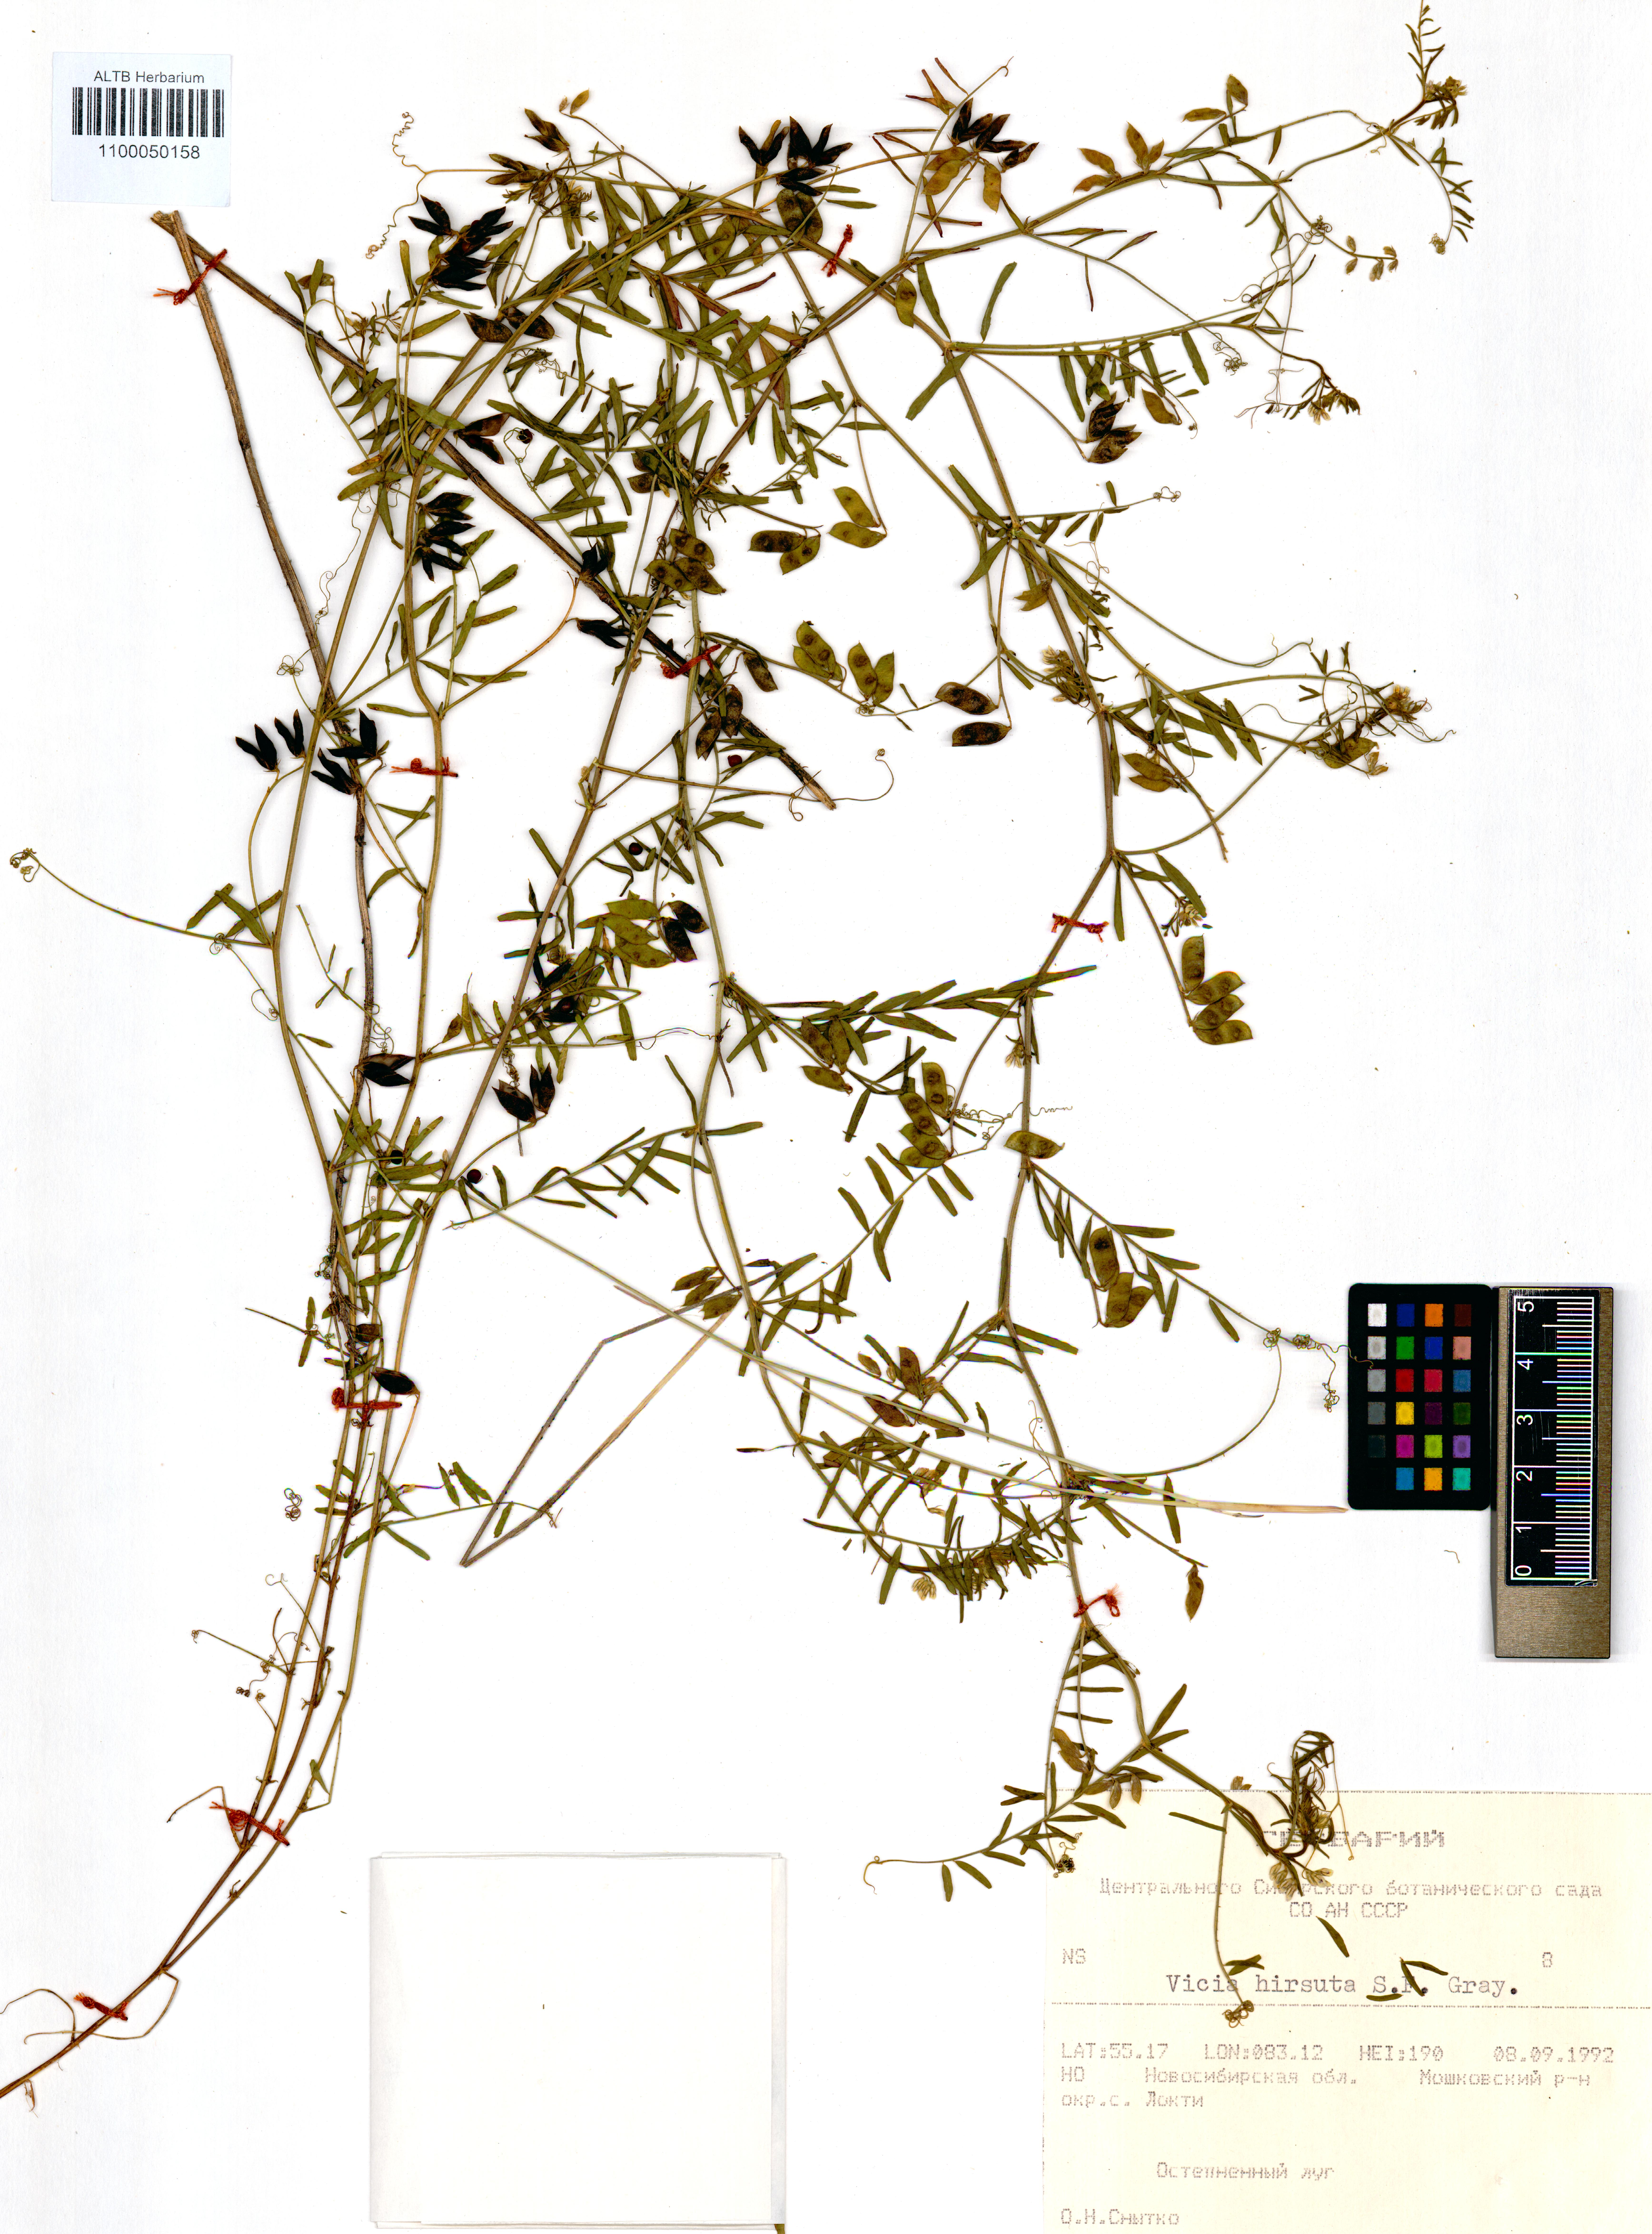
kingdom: Plantae
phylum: Tracheophyta
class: Magnoliopsida
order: Fabales
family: Fabaceae
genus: Vicia
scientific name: Vicia hirsuta
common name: Tiny vetch
